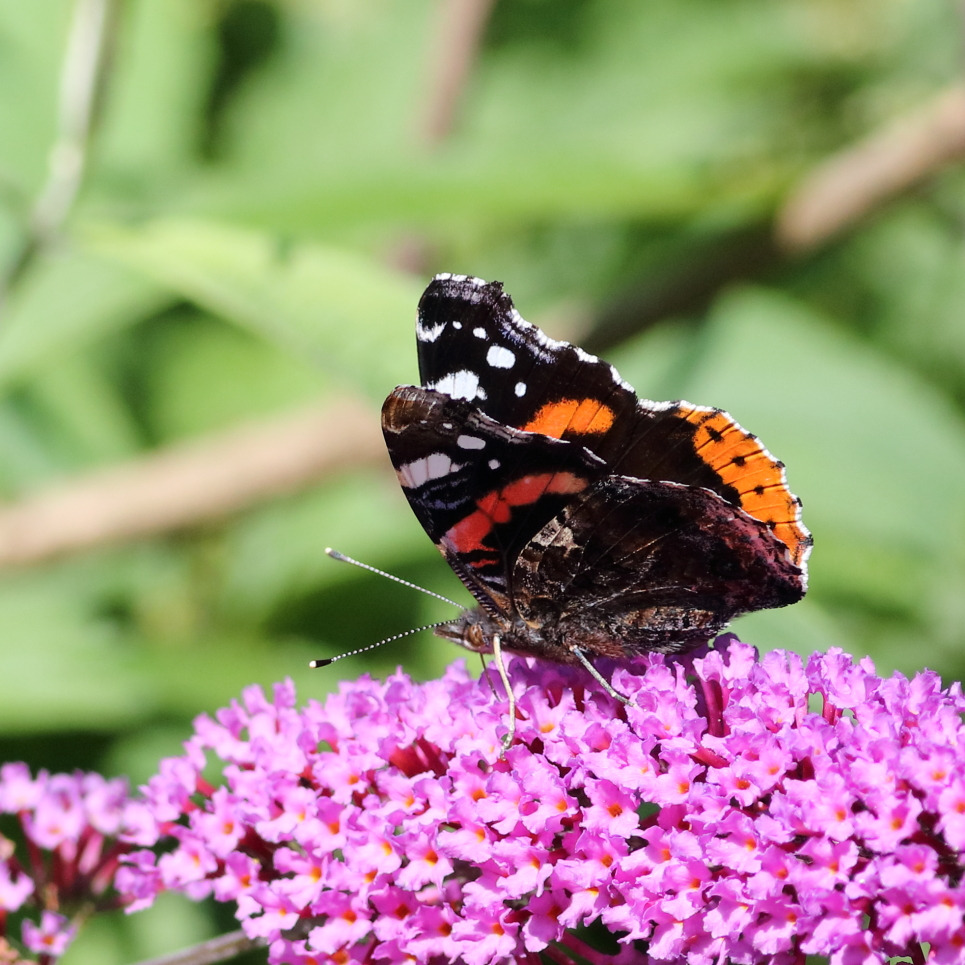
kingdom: Animalia
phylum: Arthropoda
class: Insecta
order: Lepidoptera
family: Nymphalidae
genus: Vanessa
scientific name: Vanessa atalanta
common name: Admiral
